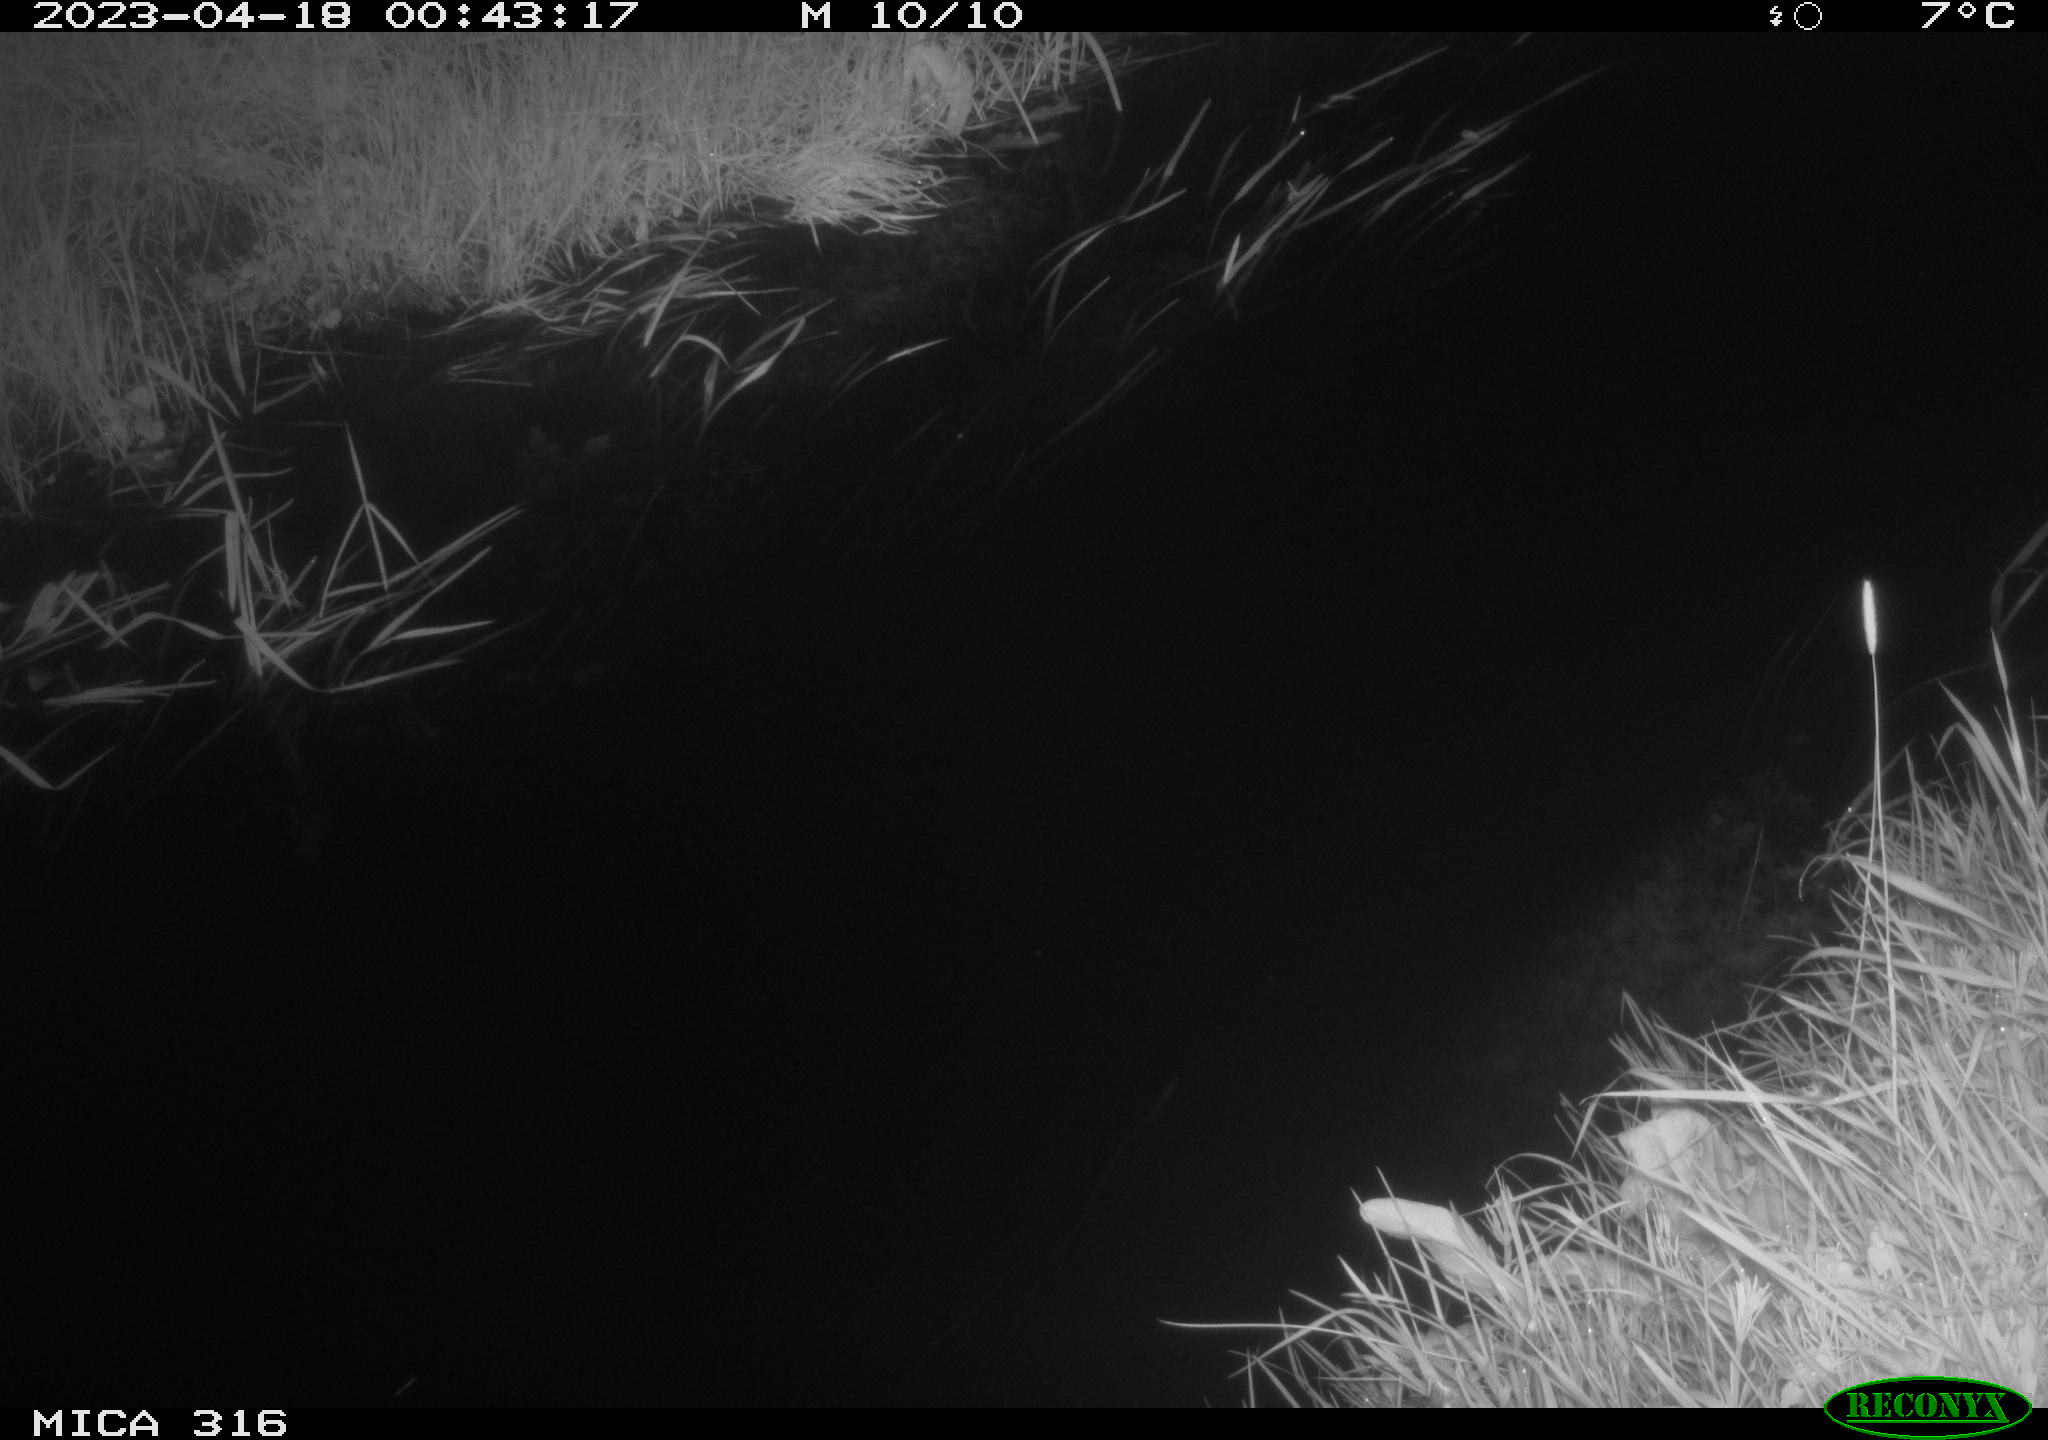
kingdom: Animalia
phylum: Chordata
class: Aves
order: Anseriformes
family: Anatidae
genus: Anas
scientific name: Anas
